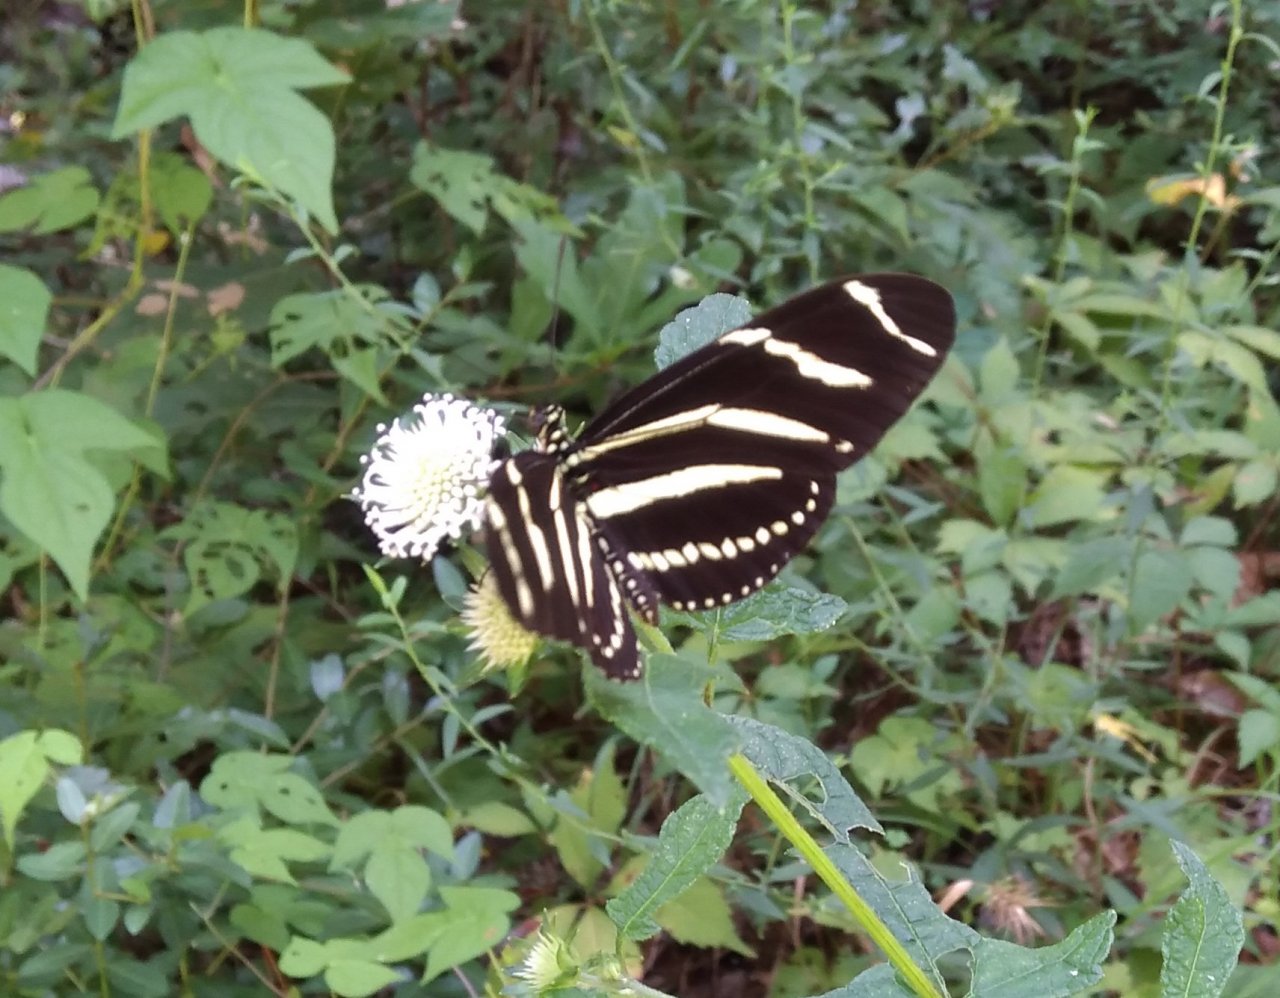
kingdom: Animalia
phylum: Arthropoda
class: Insecta
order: Lepidoptera
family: Nymphalidae
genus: Heliconius
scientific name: Heliconius charithonia
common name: Zebra Longwing
